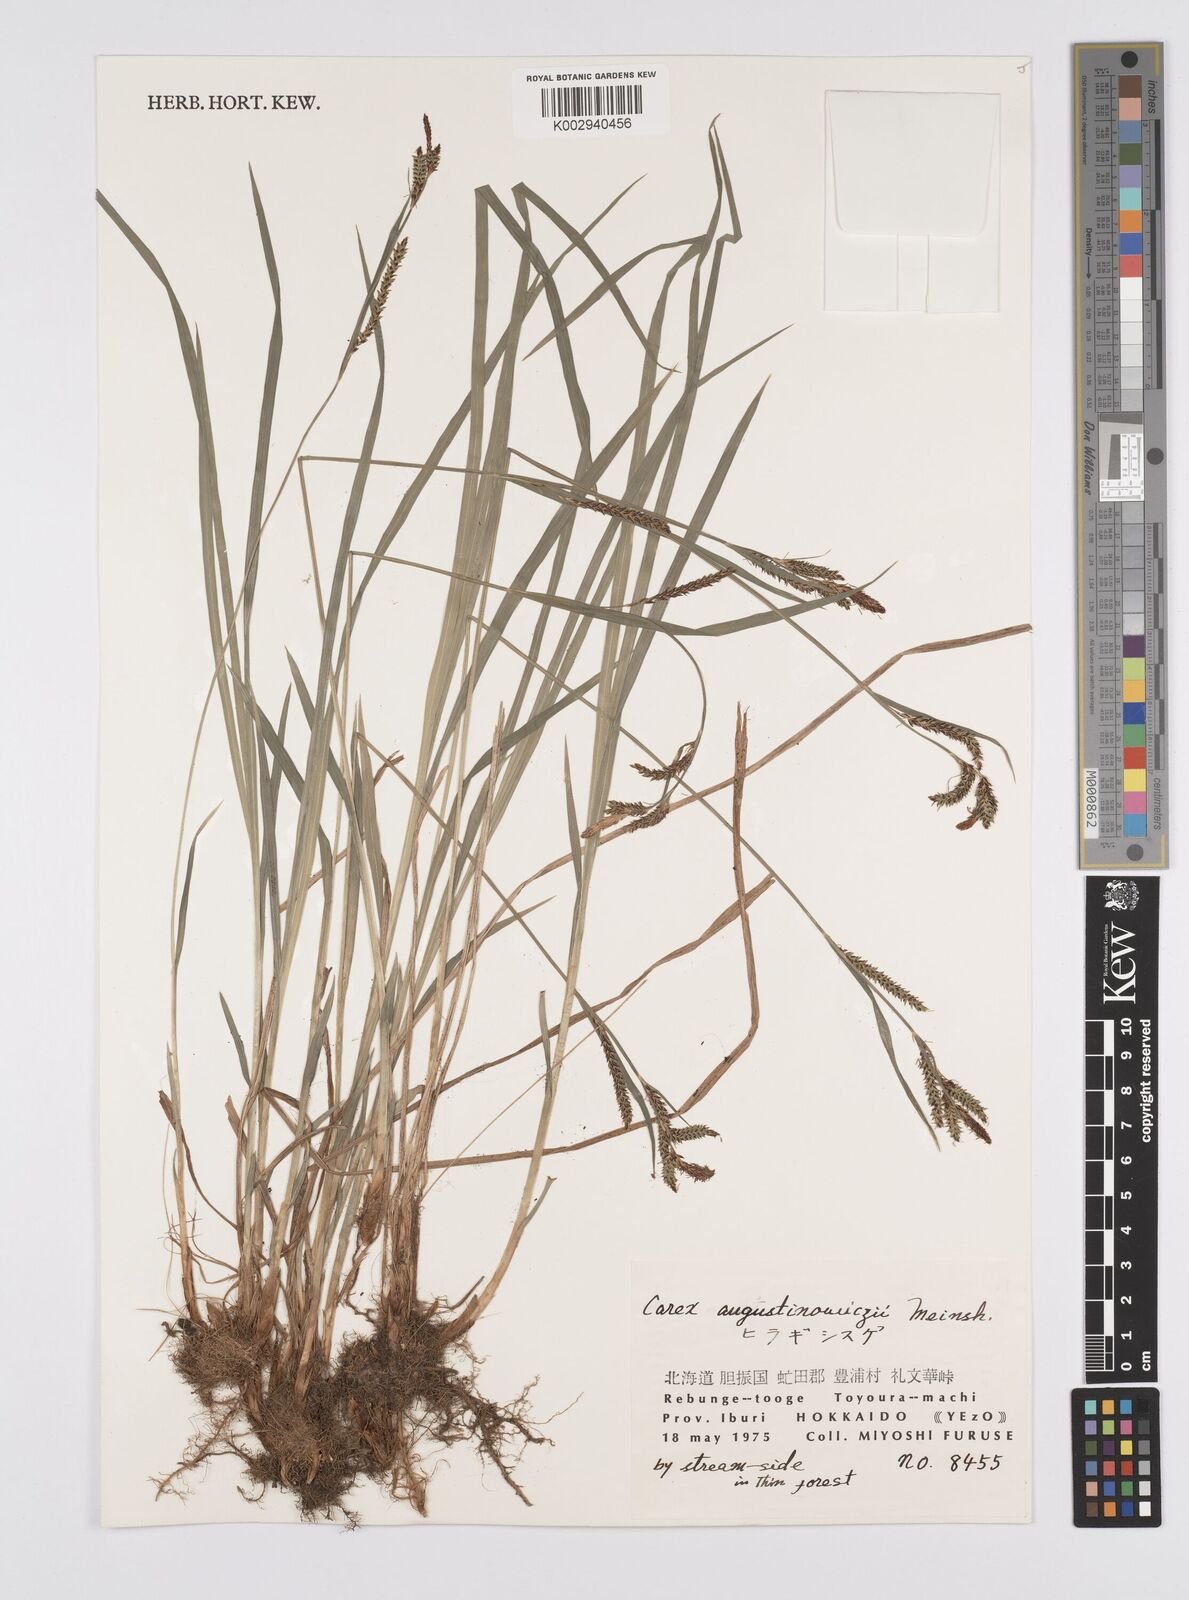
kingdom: Plantae
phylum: Tracheophyta
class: Liliopsida
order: Poales
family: Cyperaceae
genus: Carex
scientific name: Carex augustinowiczii
